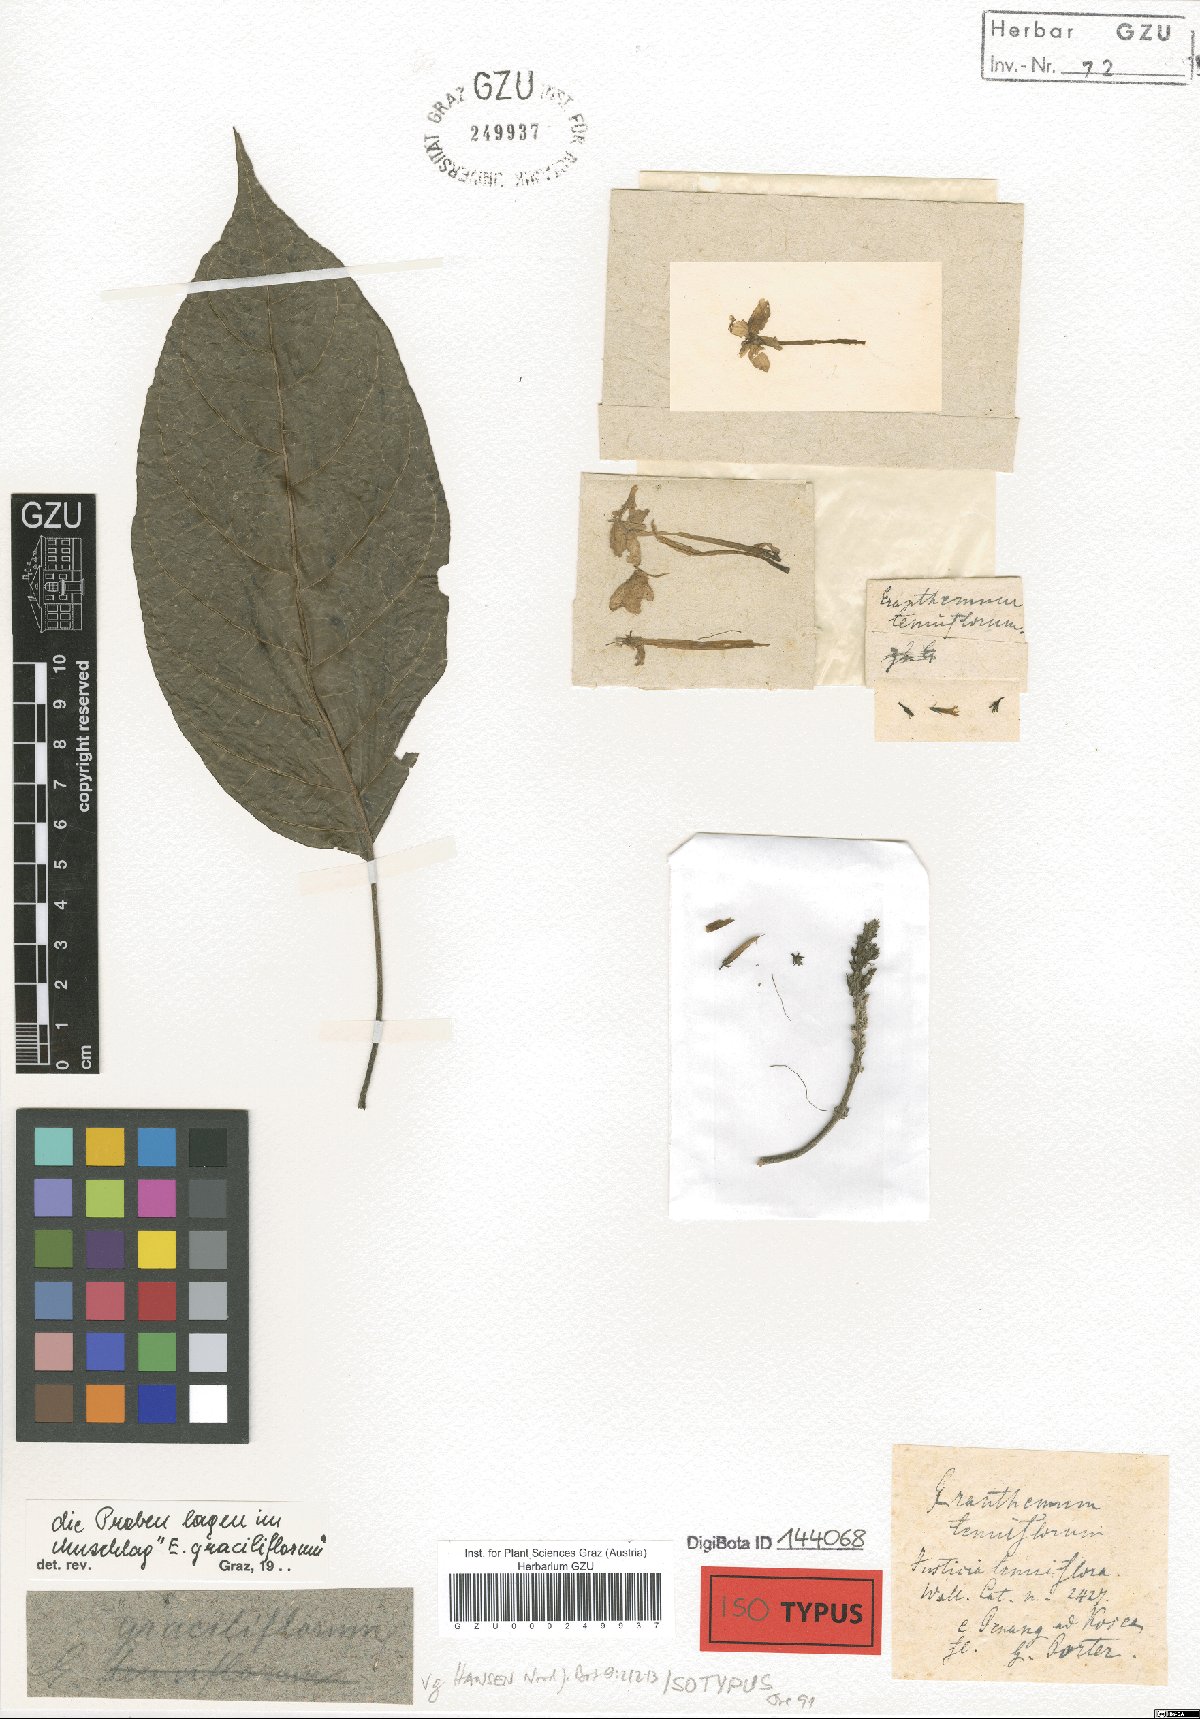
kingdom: Plantae
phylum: Tracheophyta
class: Magnoliopsida
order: Lamiales
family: Acanthaceae
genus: Pseuderanthemum
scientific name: Pseuderanthemum graciliflorum
